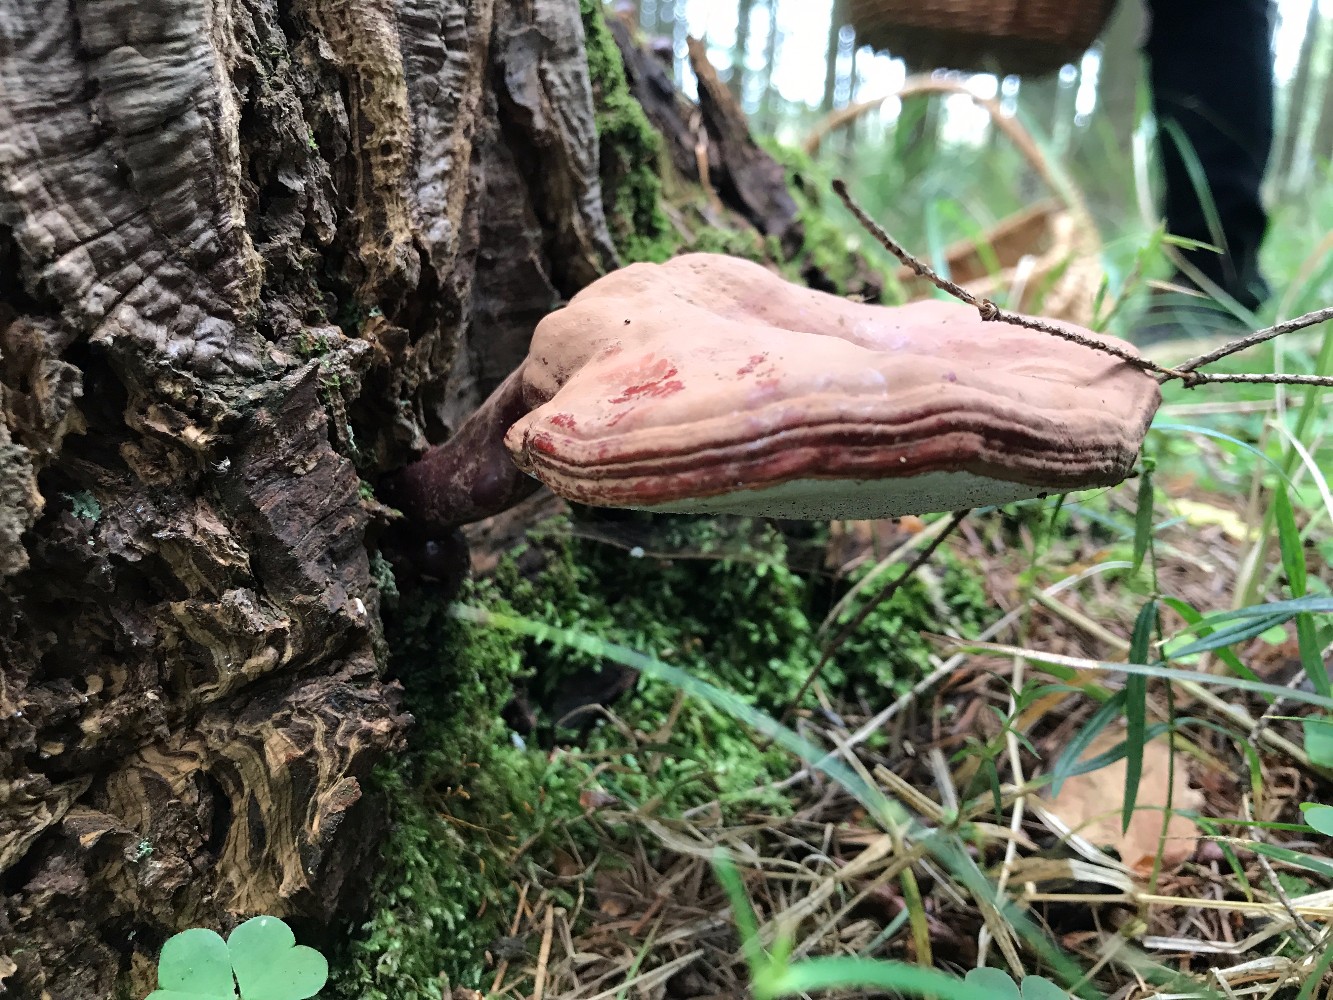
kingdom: Fungi
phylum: Basidiomycota
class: Agaricomycetes
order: Polyporales
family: Polyporaceae
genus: Ganoderma
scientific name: Ganoderma lucidum
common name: skinnende lakporesvamp
